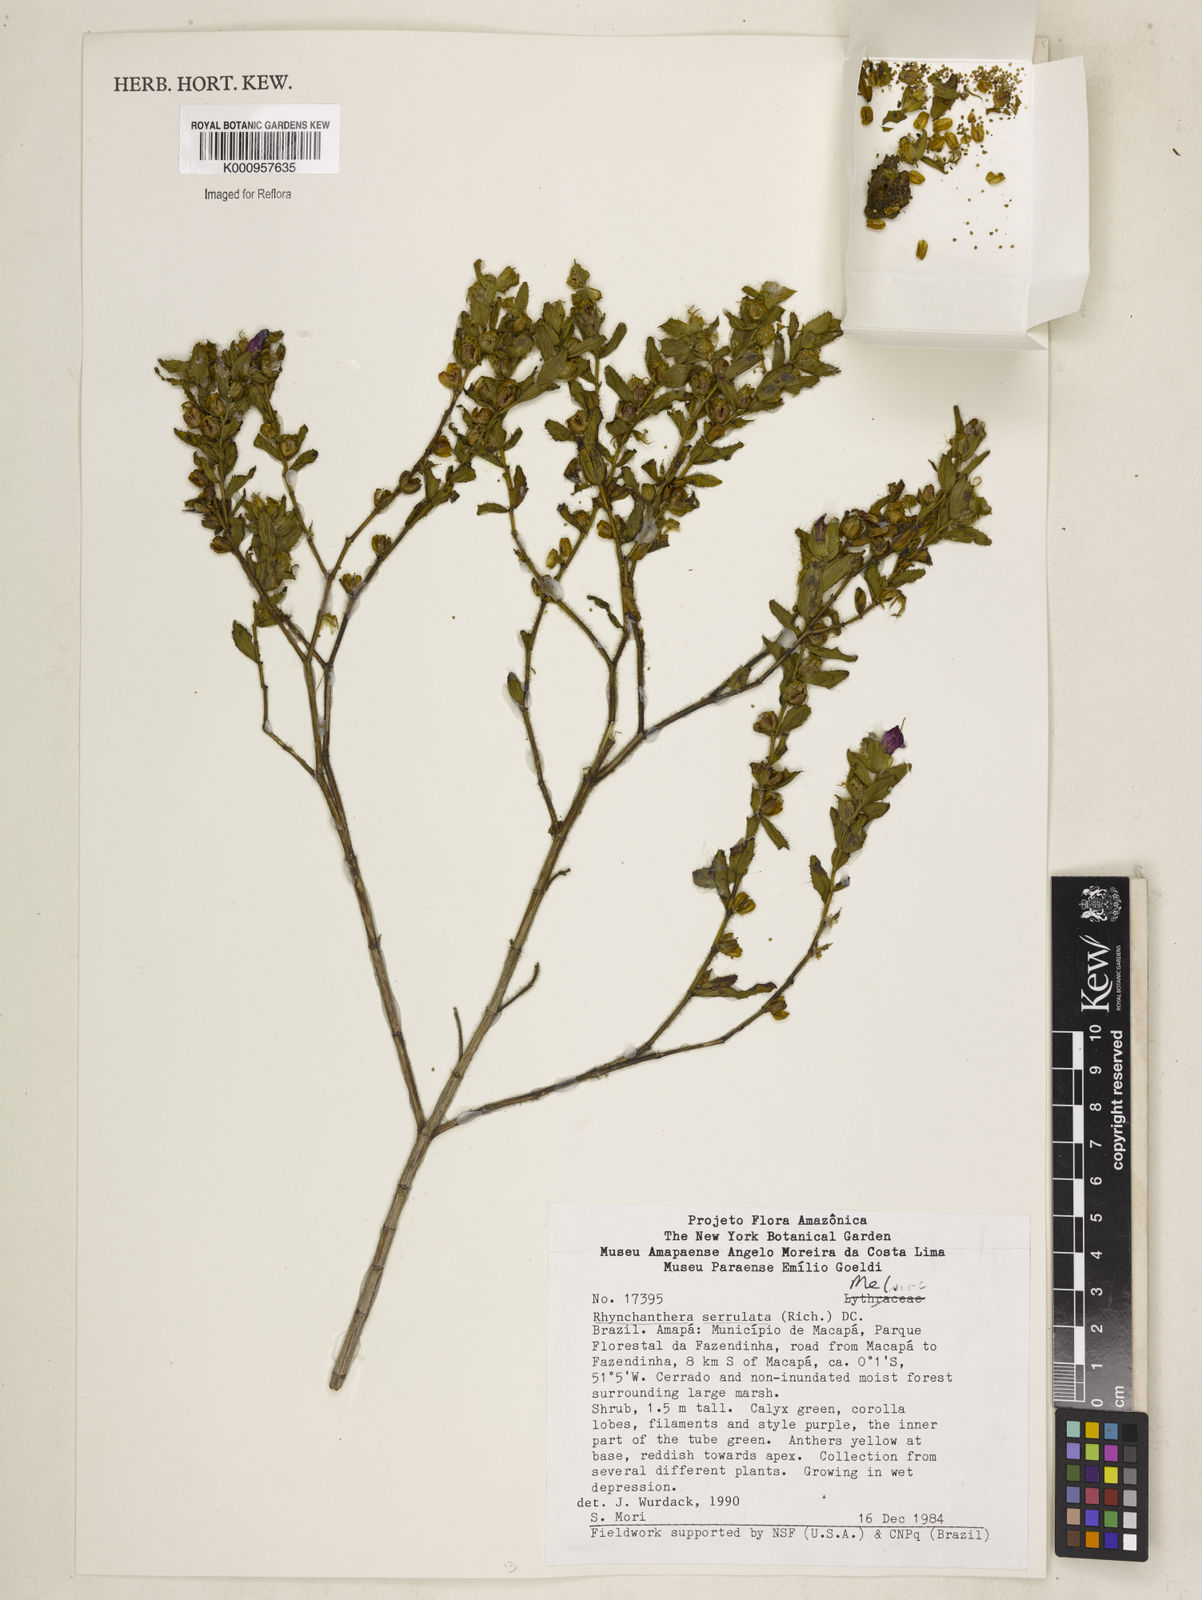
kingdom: Plantae
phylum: Tracheophyta
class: Magnoliopsida
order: Myrtales
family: Melastomataceae
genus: Rhynchanthera
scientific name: Rhynchanthera serrulata
